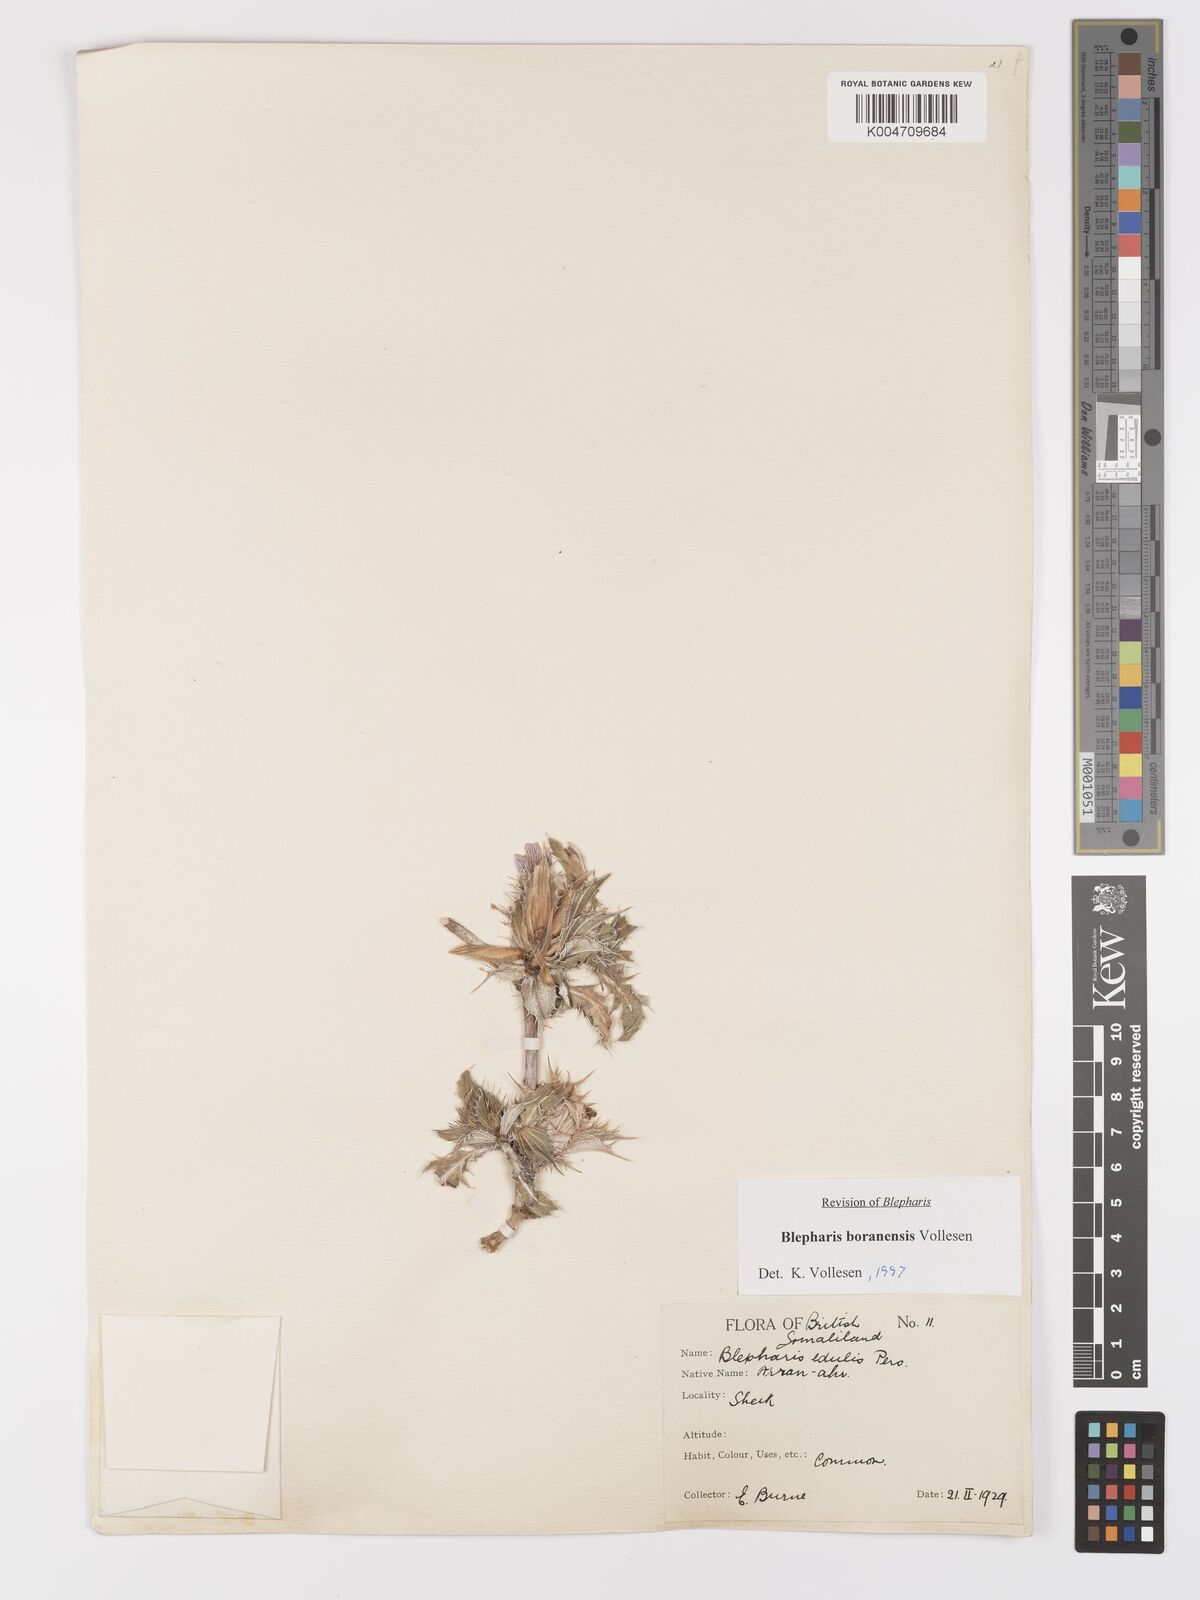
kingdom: Plantae
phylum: Tracheophyta
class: Magnoliopsida
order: Lamiales
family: Acanthaceae
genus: Blepharis
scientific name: Blepharis boranensis
